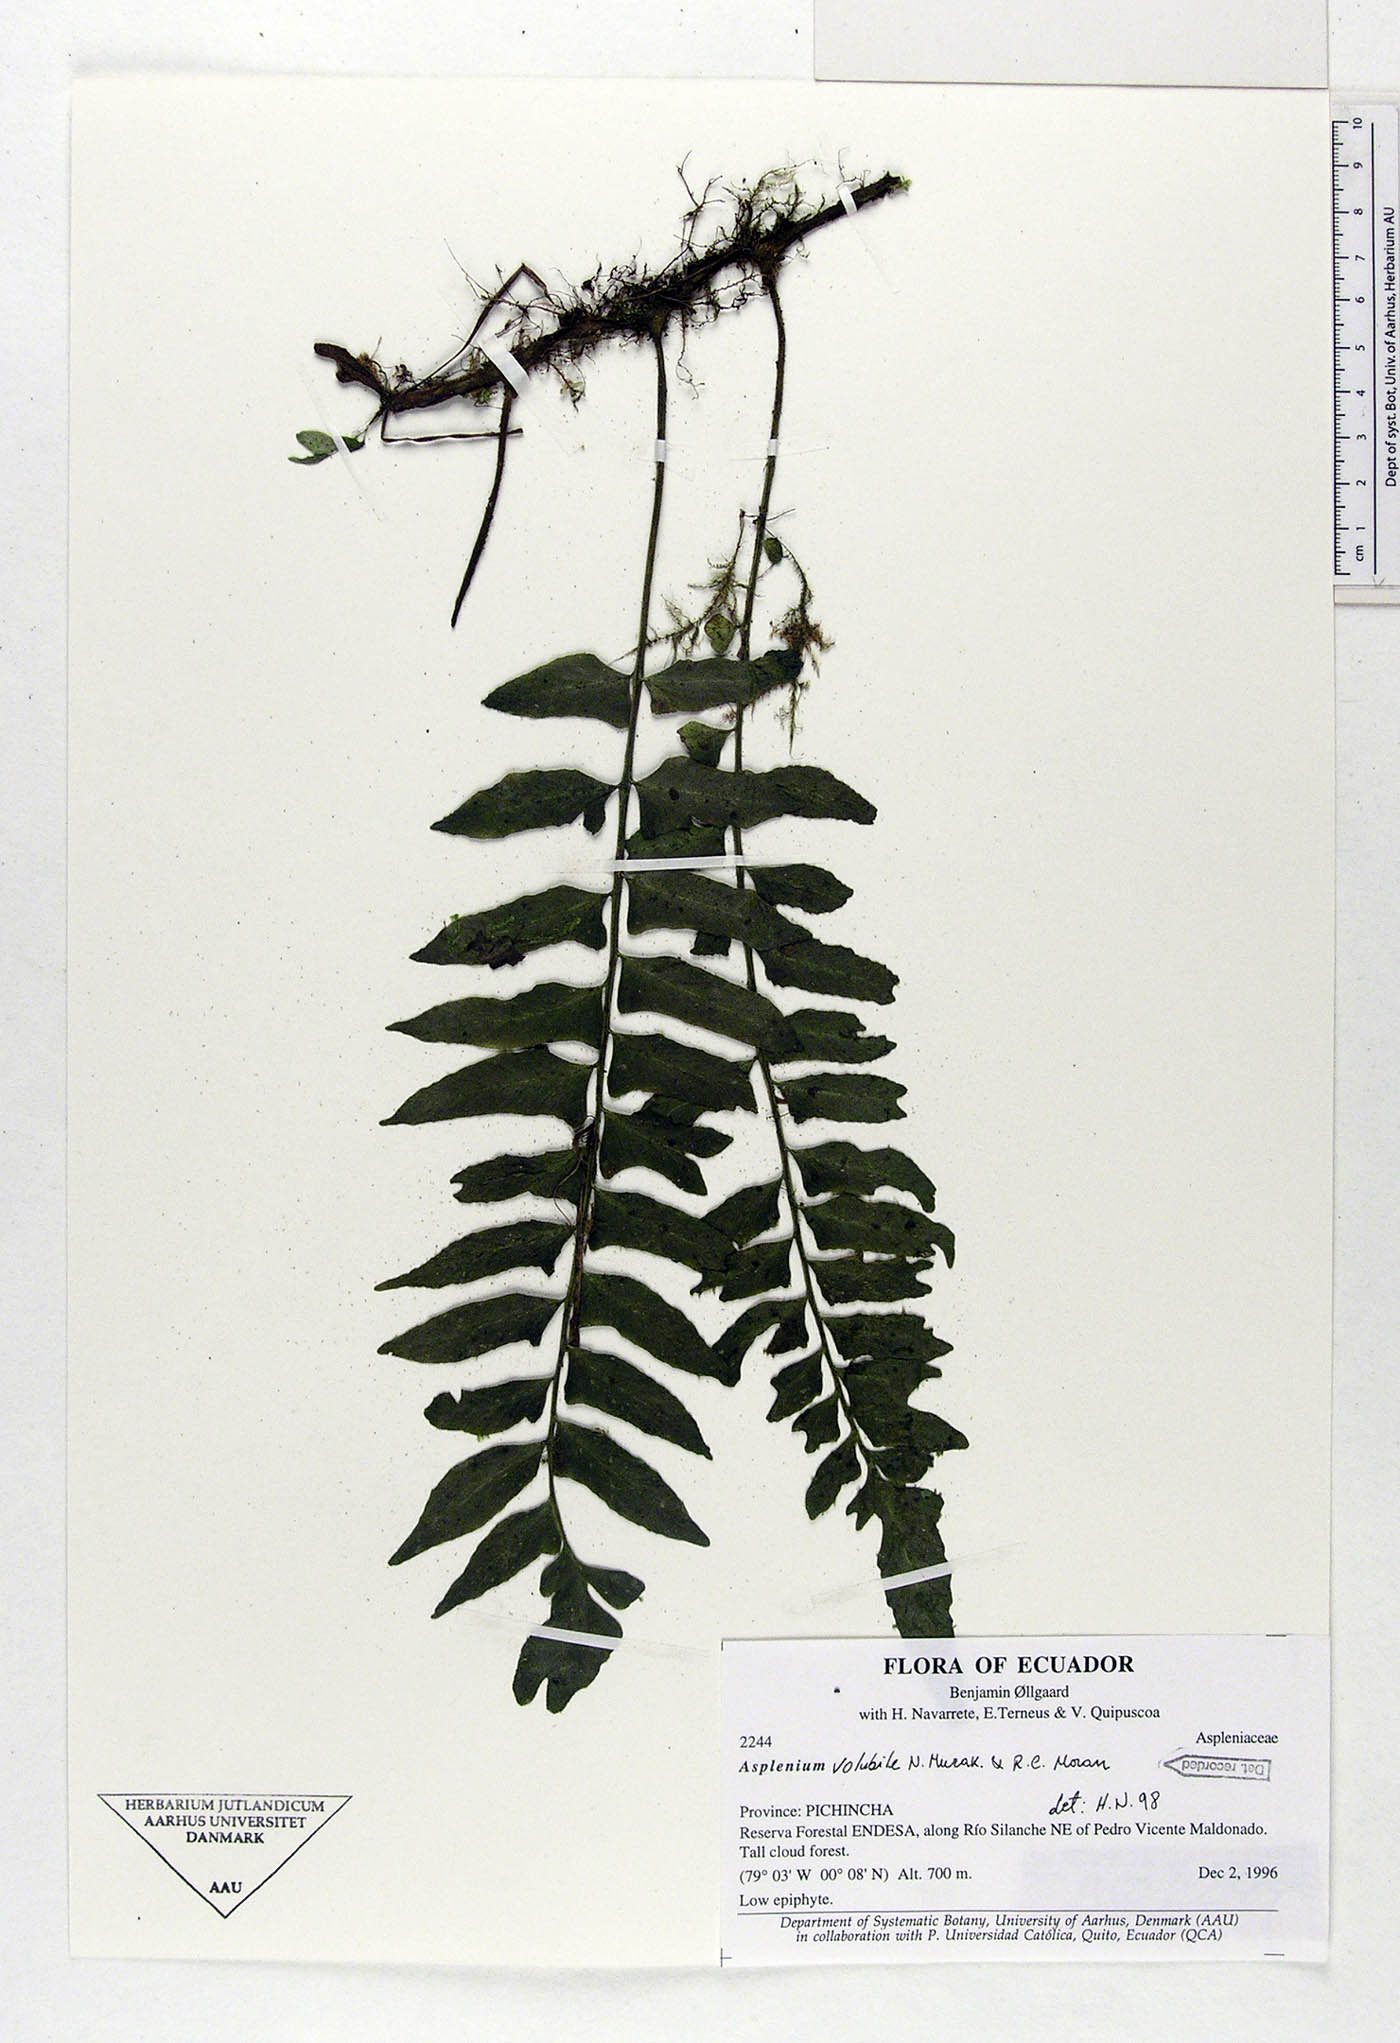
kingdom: Plantae
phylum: Tracheophyta
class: Polypodiopsida
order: Polypodiales
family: Aspleniaceae
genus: Hymenasplenium
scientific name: Hymenasplenium volubile
